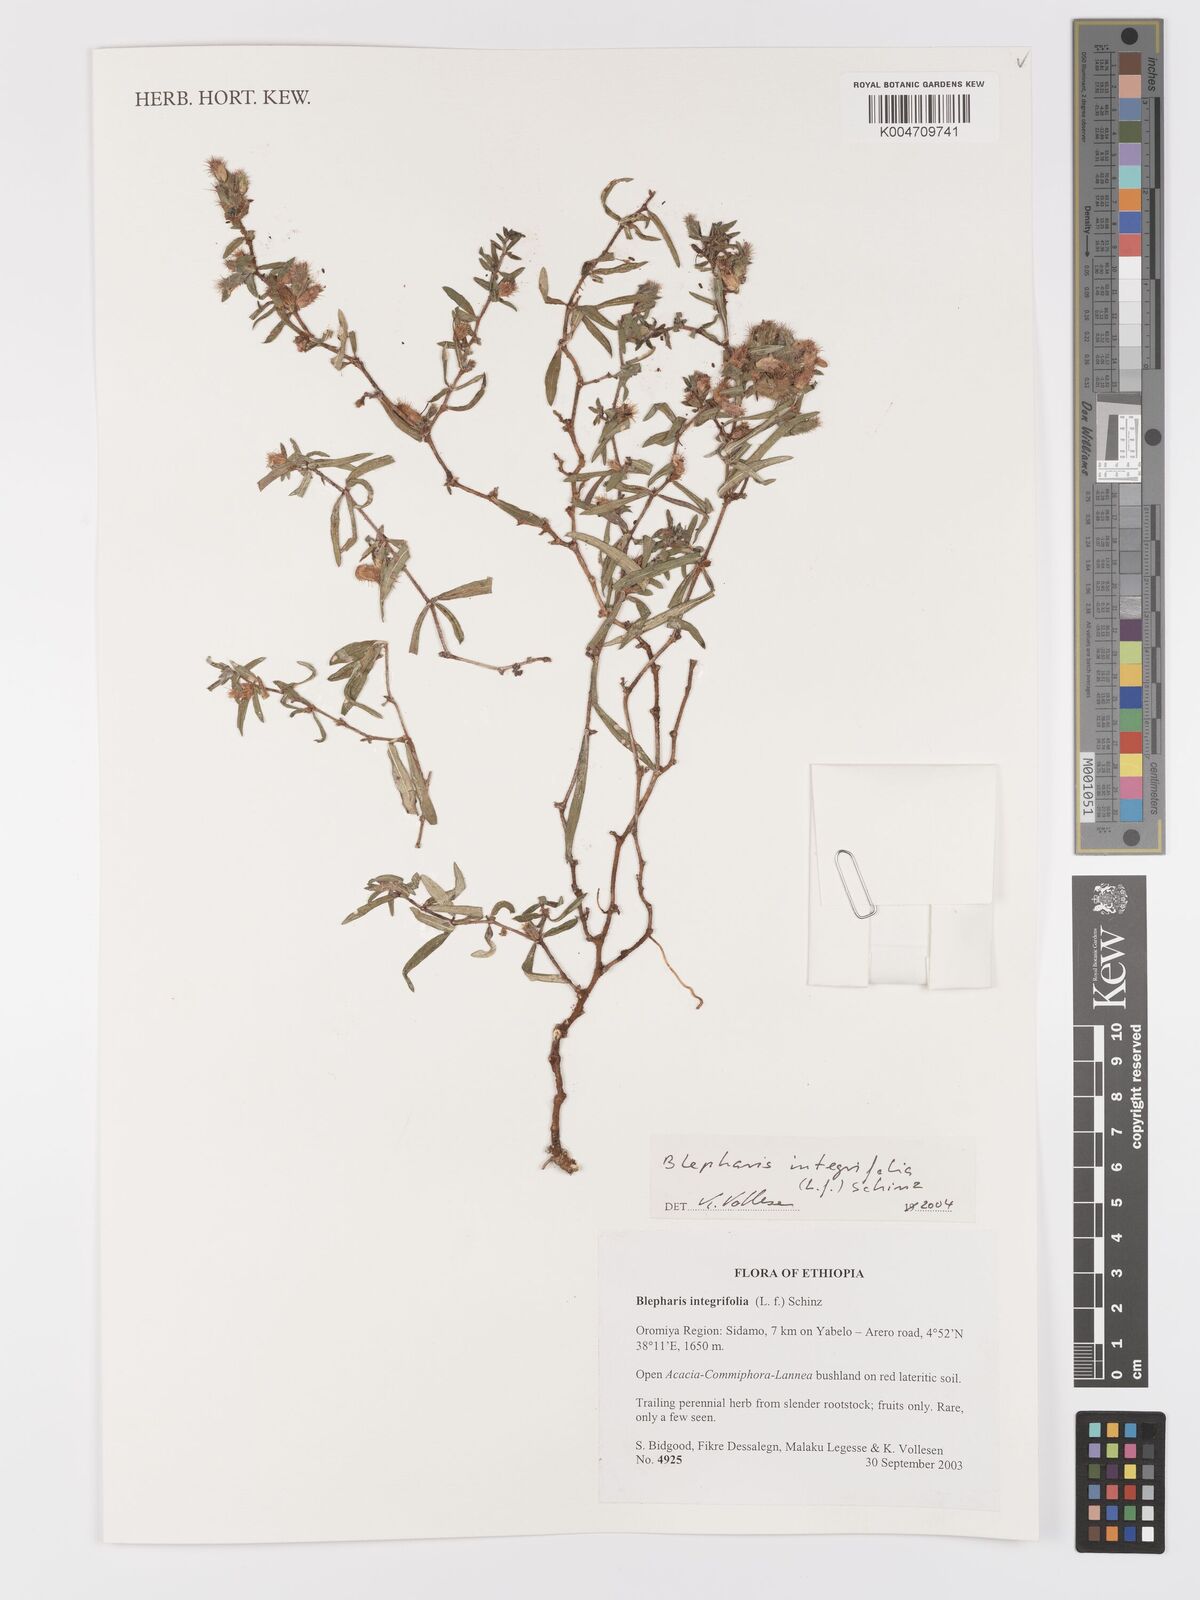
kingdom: Plantae
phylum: Tracheophyta
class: Magnoliopsida
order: Lamiales
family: Acanthaceae
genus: Blepharis
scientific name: Blepharis integrifolia
